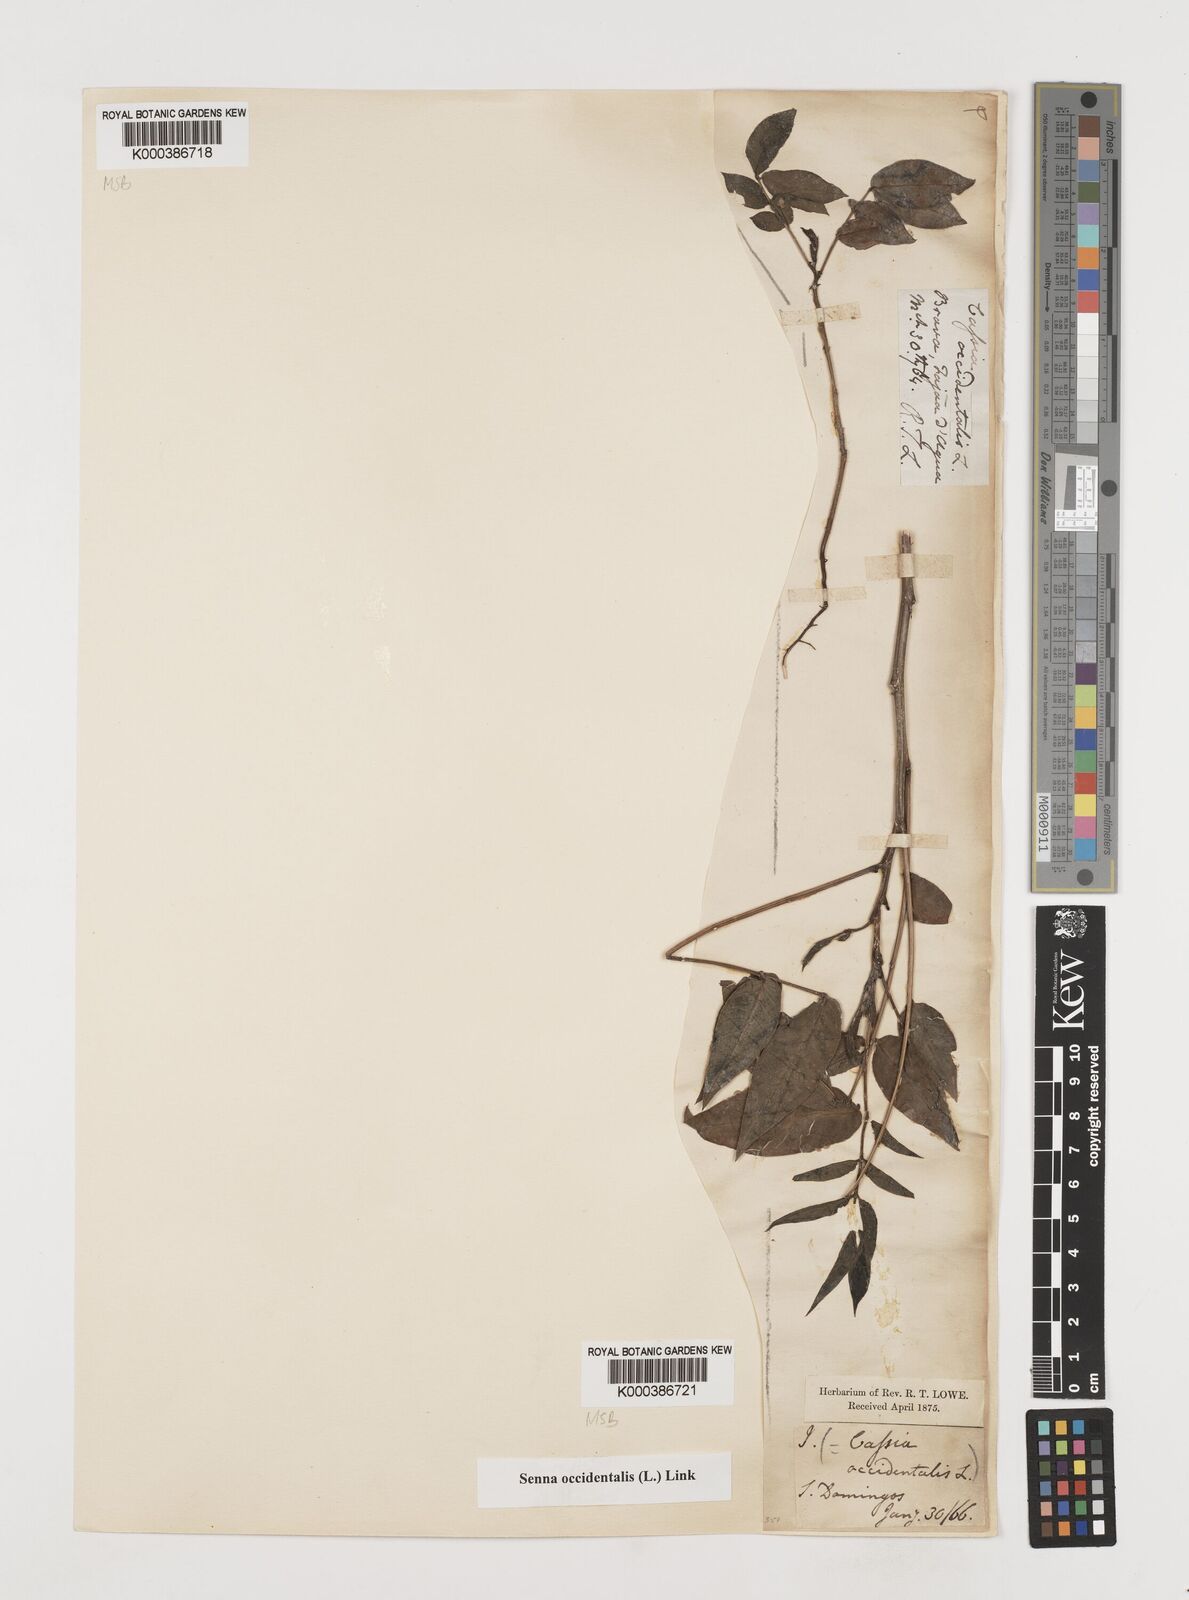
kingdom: Plantae
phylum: Tracheophyta
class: Magnoliopsida
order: Fabales
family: Fabaceae
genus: Senna
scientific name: Senna occidentalis
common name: Septicweed
